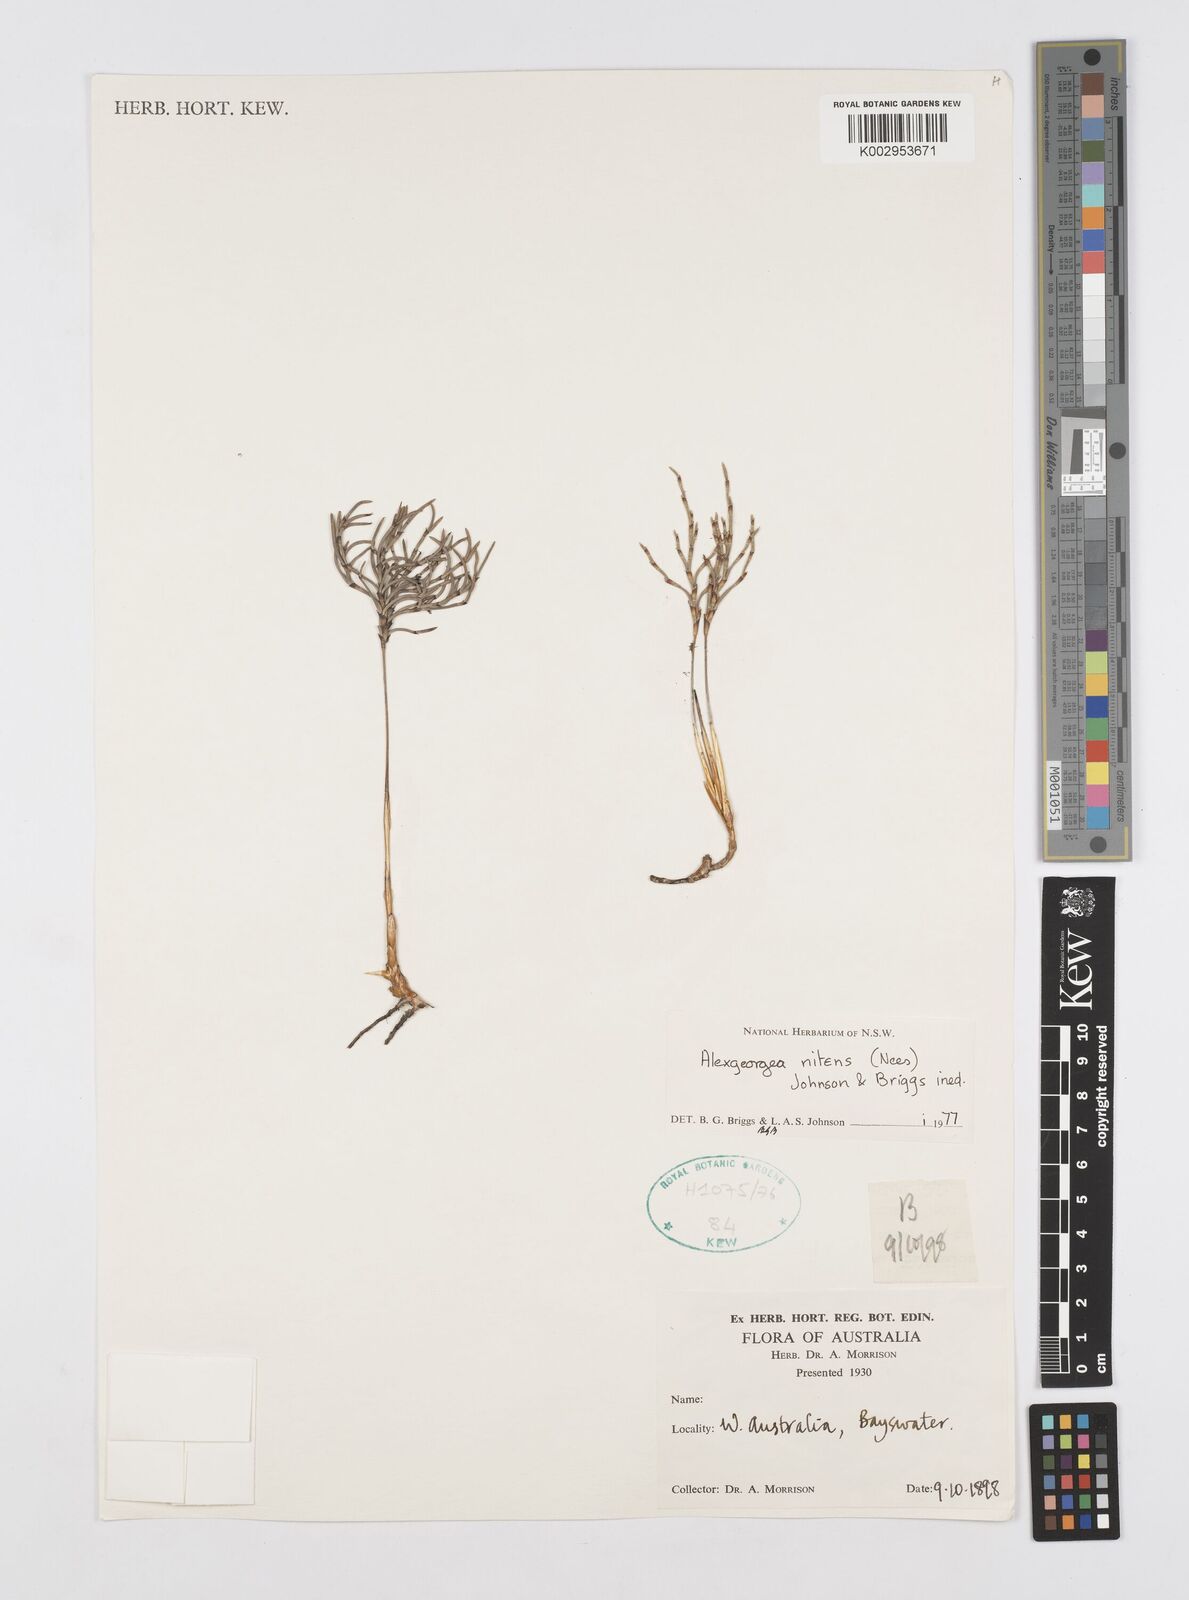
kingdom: Plantae
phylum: Tracheophyta
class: Liliopsida
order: Poales
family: Restionaceae
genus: Alexgeorgea
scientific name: Alexgeorgea nitens
